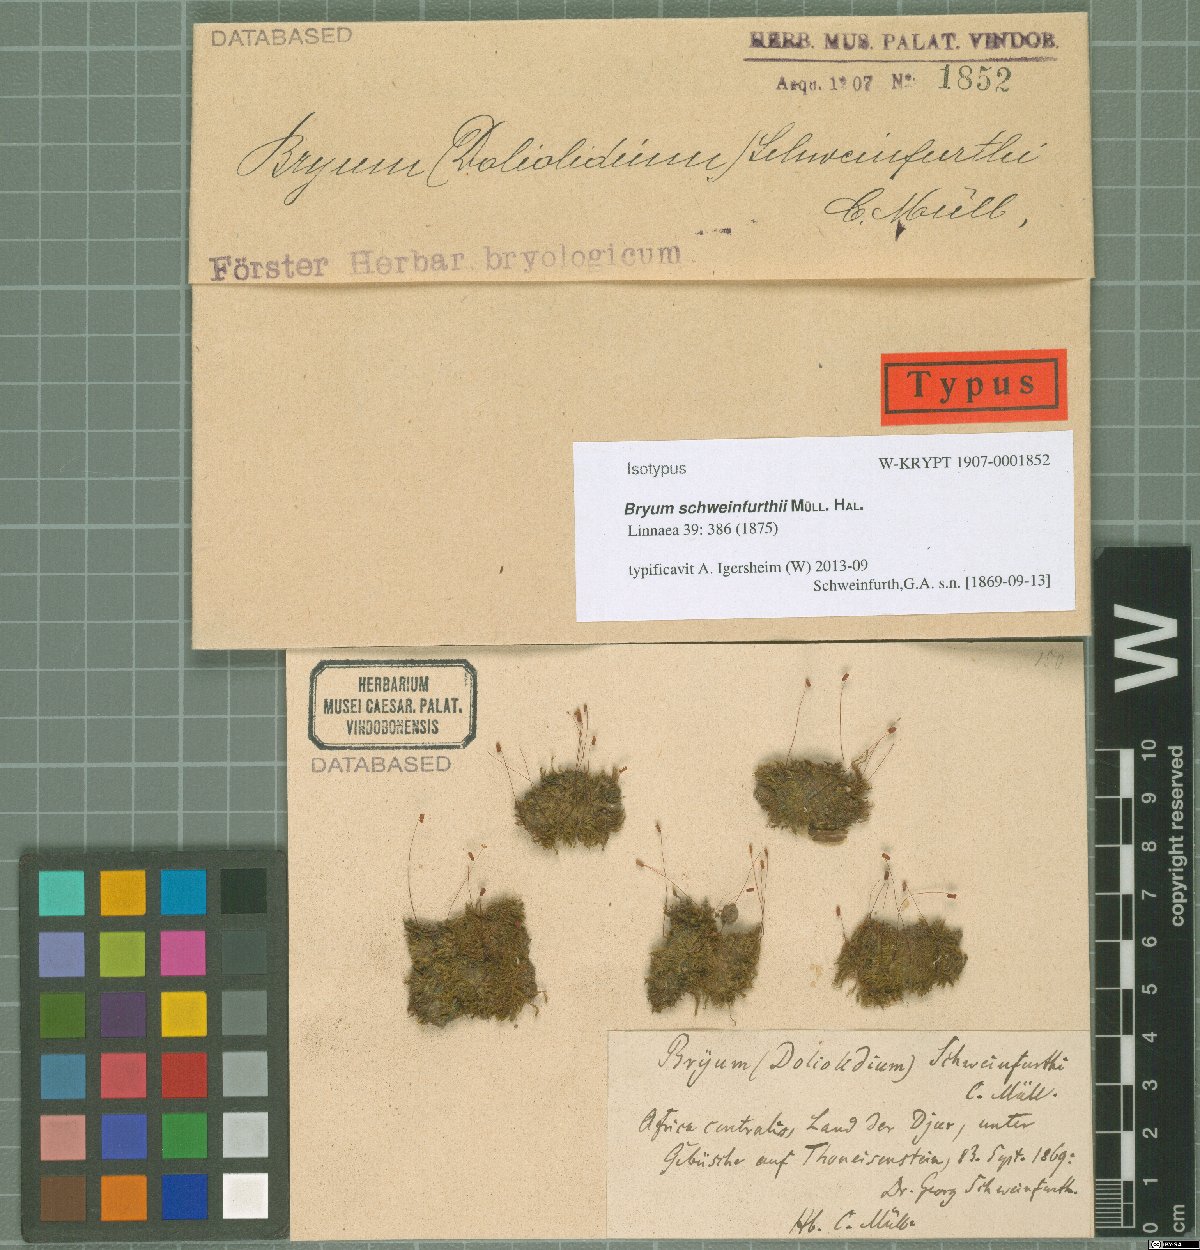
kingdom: Plantae
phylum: Bryophyta
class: Bryopsida
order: Bryales
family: Bryaceae
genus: Rosulabryum
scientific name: Rosulabryum torquescens
